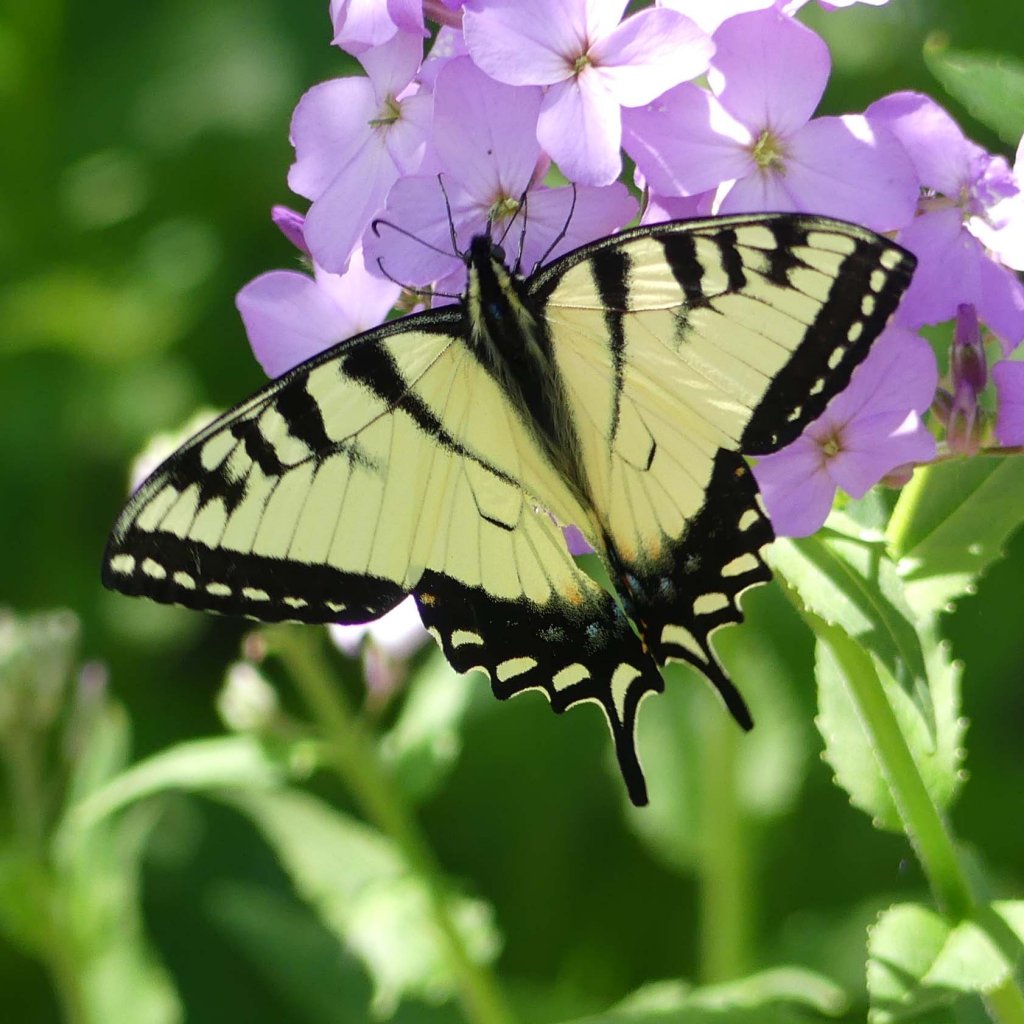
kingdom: Animalia
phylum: Arthropoda
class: Insecta
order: Lepidoptera
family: Papilionidae
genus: Pterourus
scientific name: Pterourus glaucus
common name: Eastern Tiger Swallowtail
